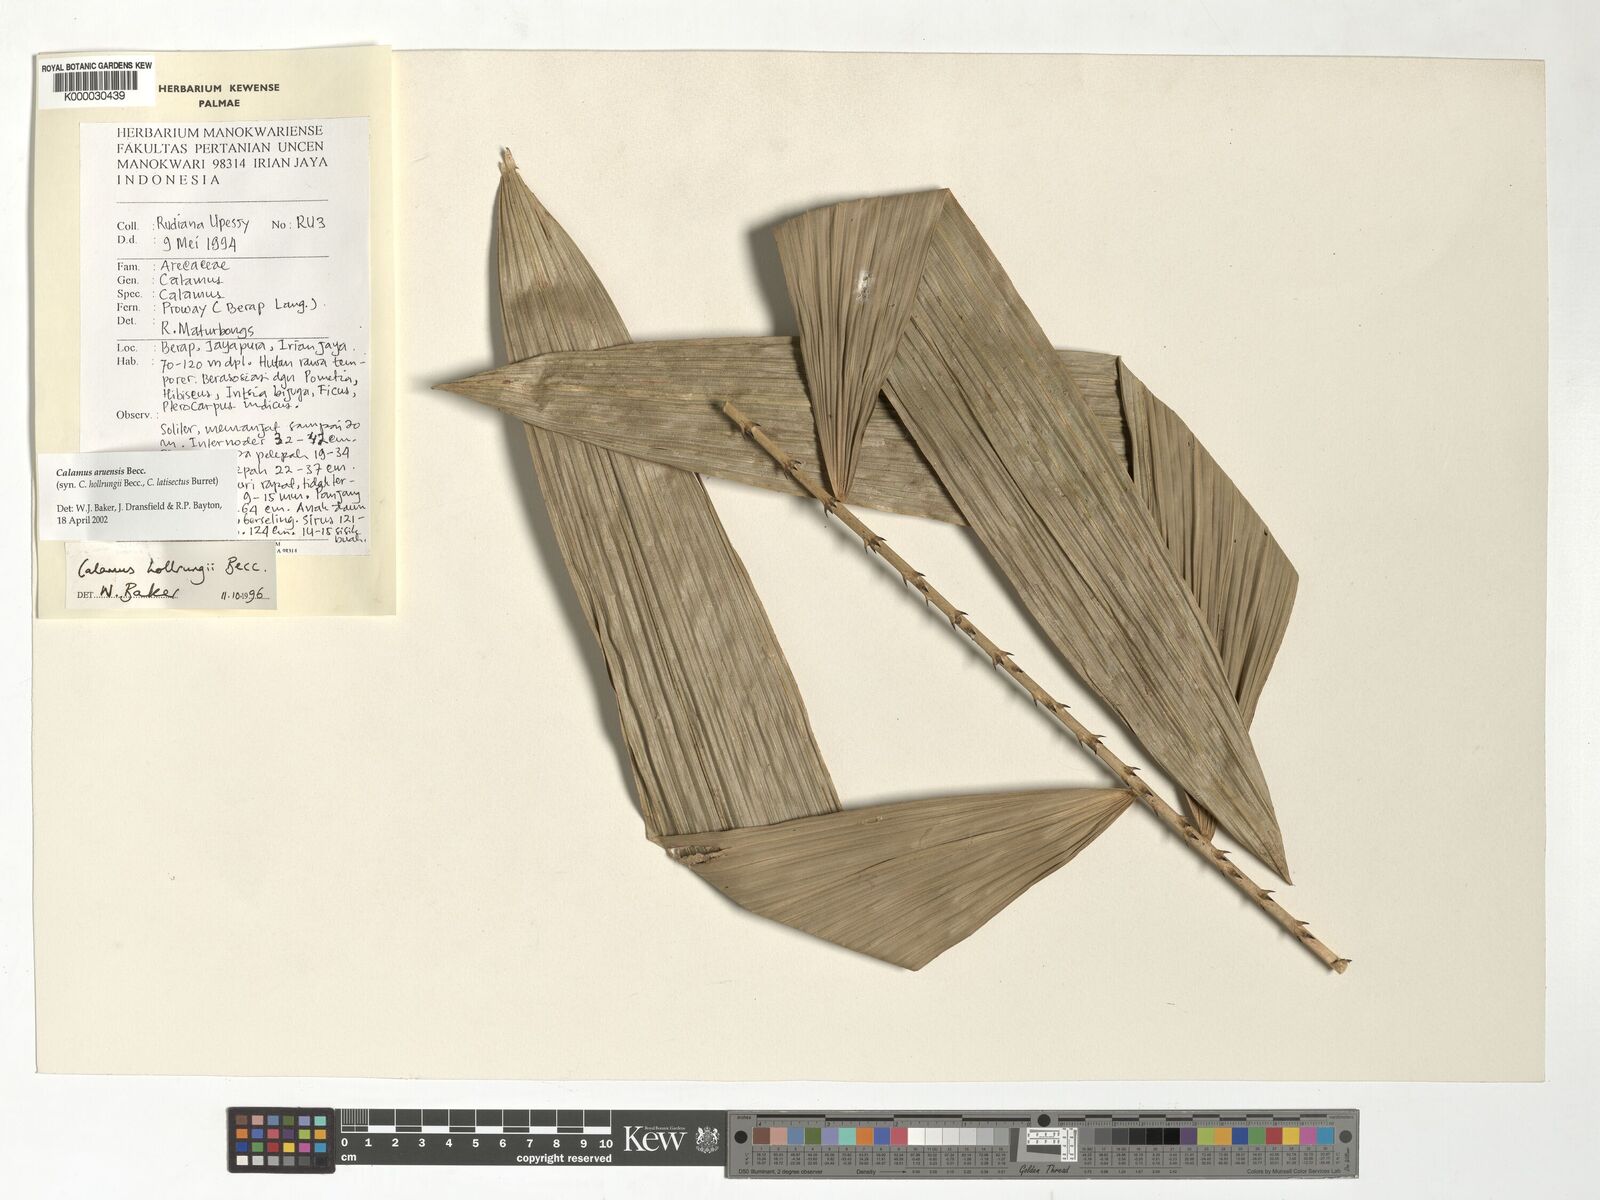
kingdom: Plantae
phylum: Tracheophyta
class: Liliopsida
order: Arecales
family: Arecaceae
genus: Calamus
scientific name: Calamus aruensis
